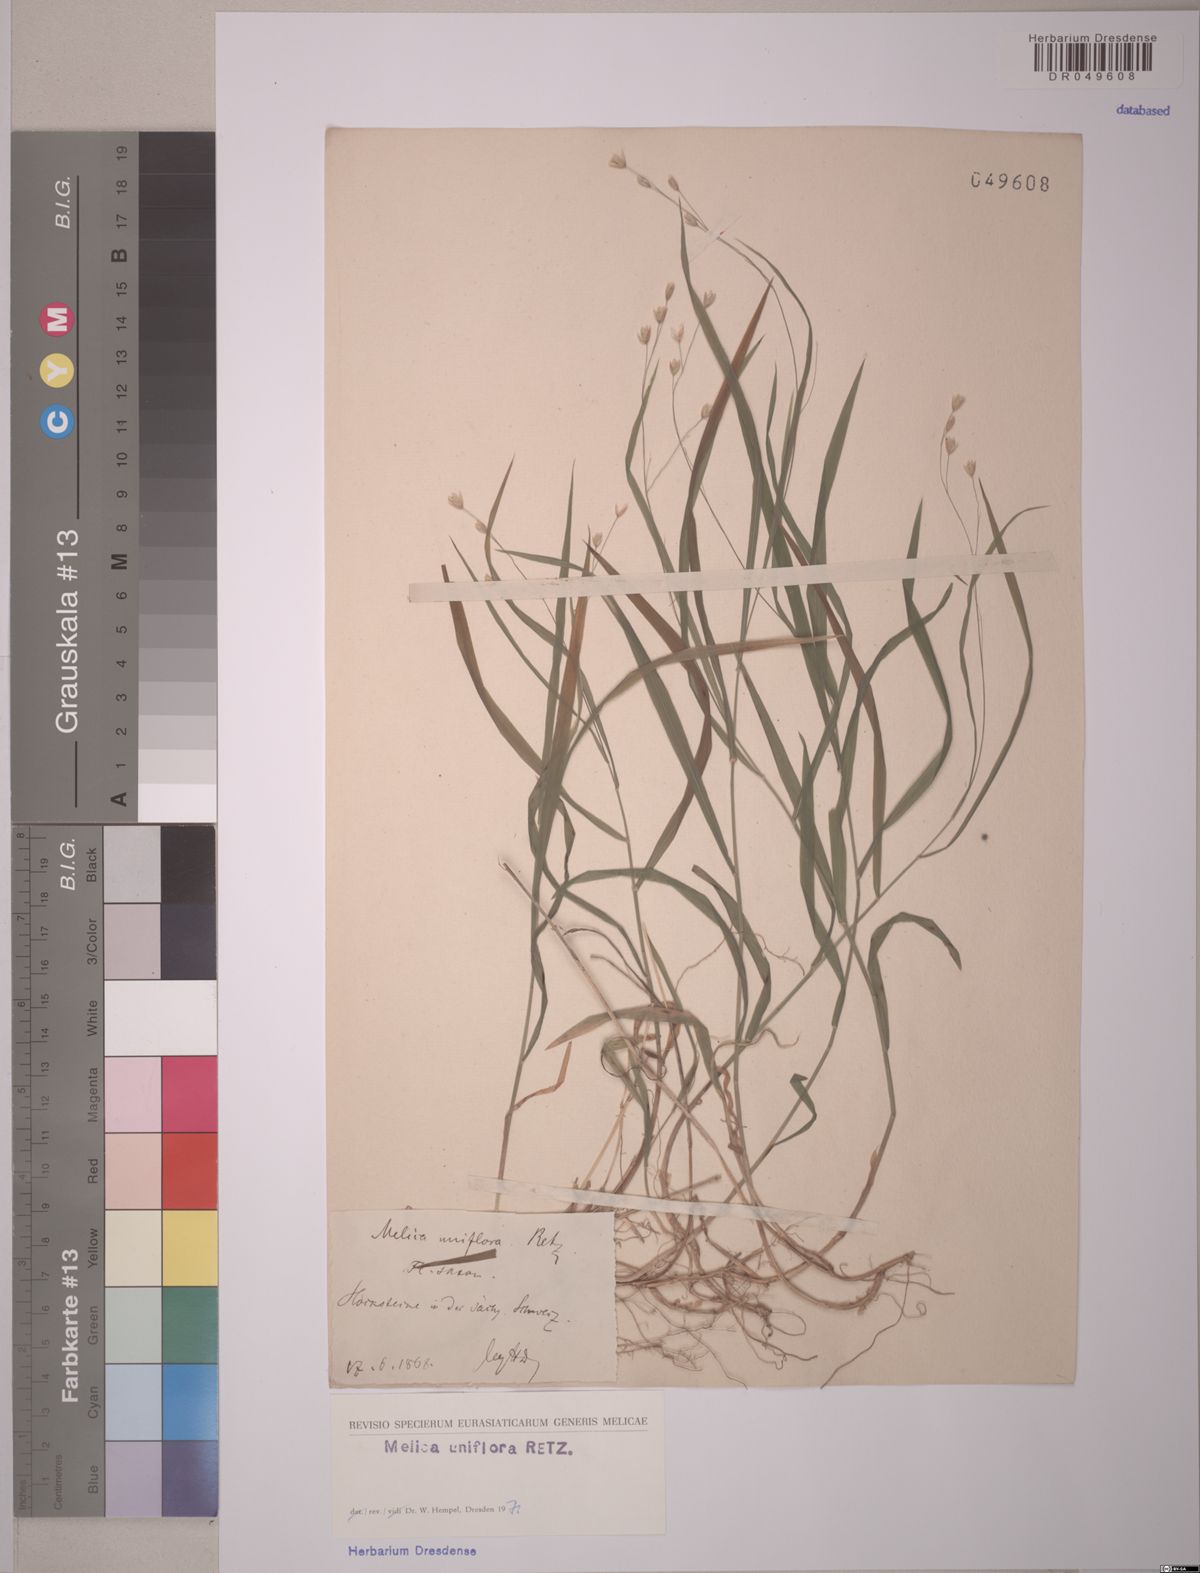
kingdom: Plantae
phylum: Tracheophyta
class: Liliopsida
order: Poales
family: Poaceae
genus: Melica
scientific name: Melica uniflora
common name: Wood melick
